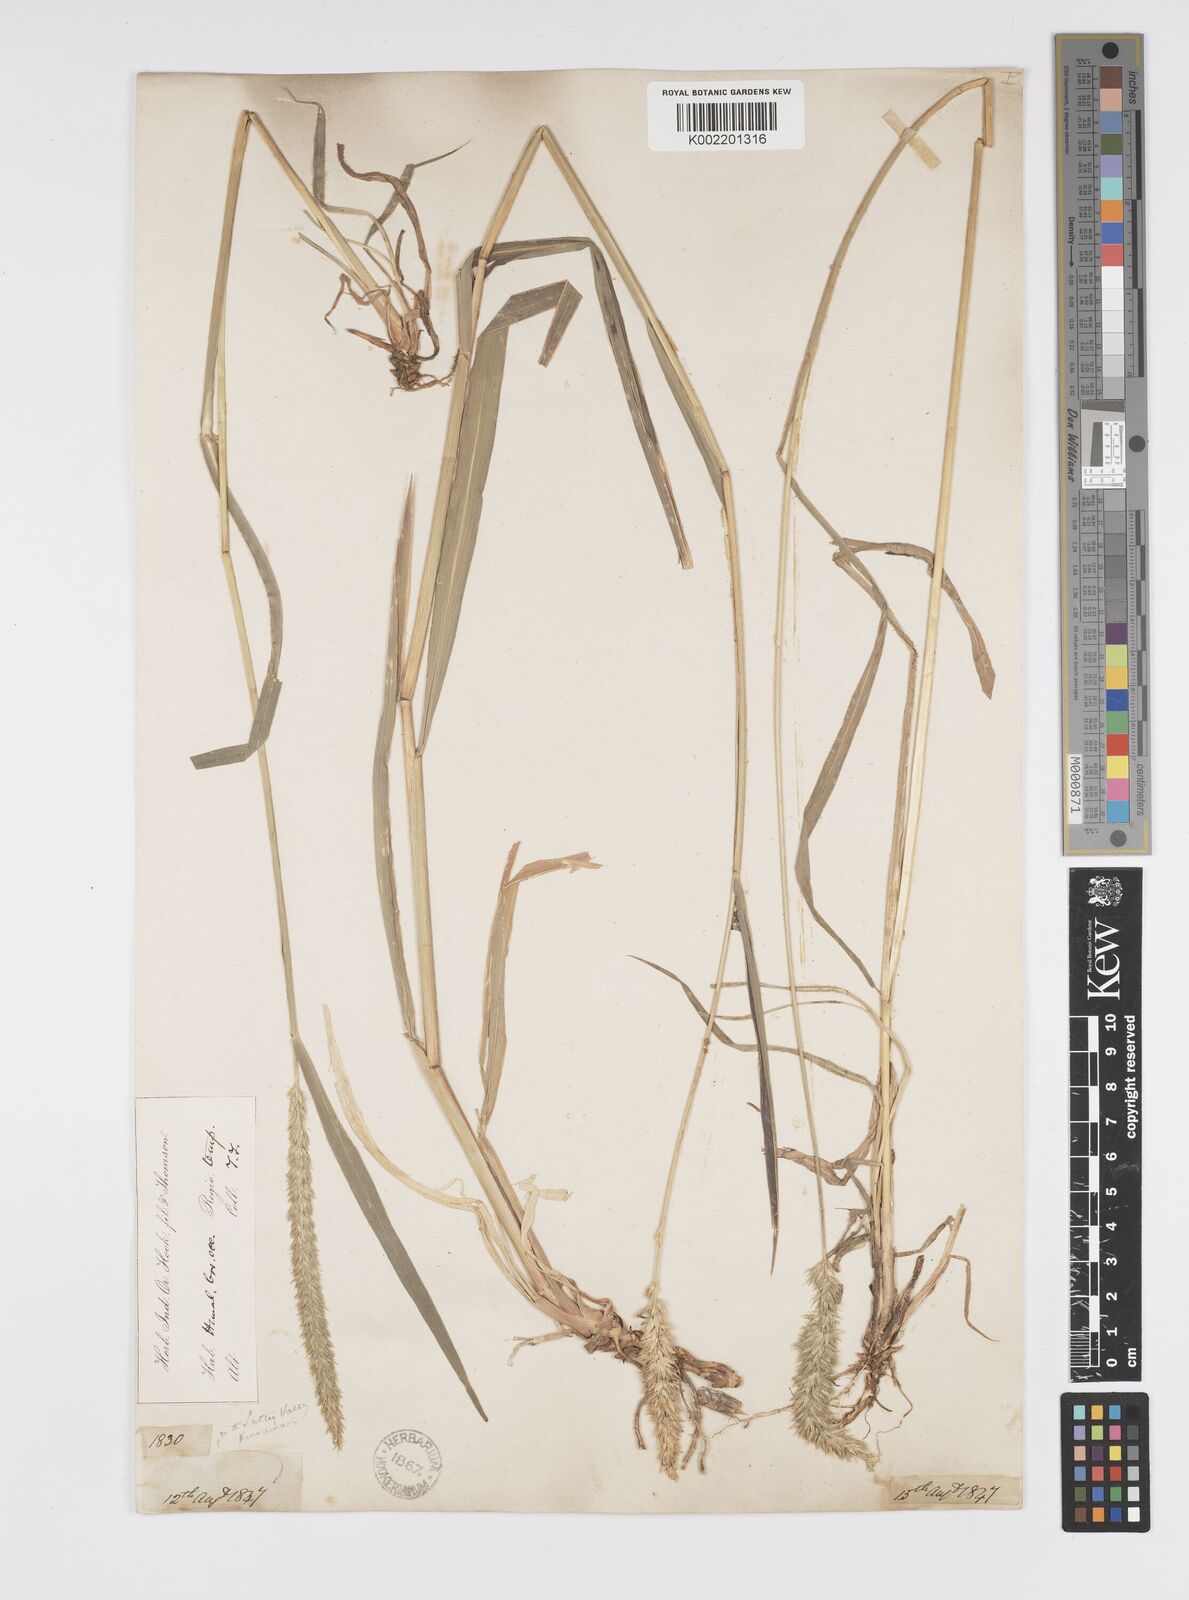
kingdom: Plantae
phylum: Tracheophyta
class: Liliopsida
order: Poales
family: Poaceae
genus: Cenchrus
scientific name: Cenchrus lanatus
